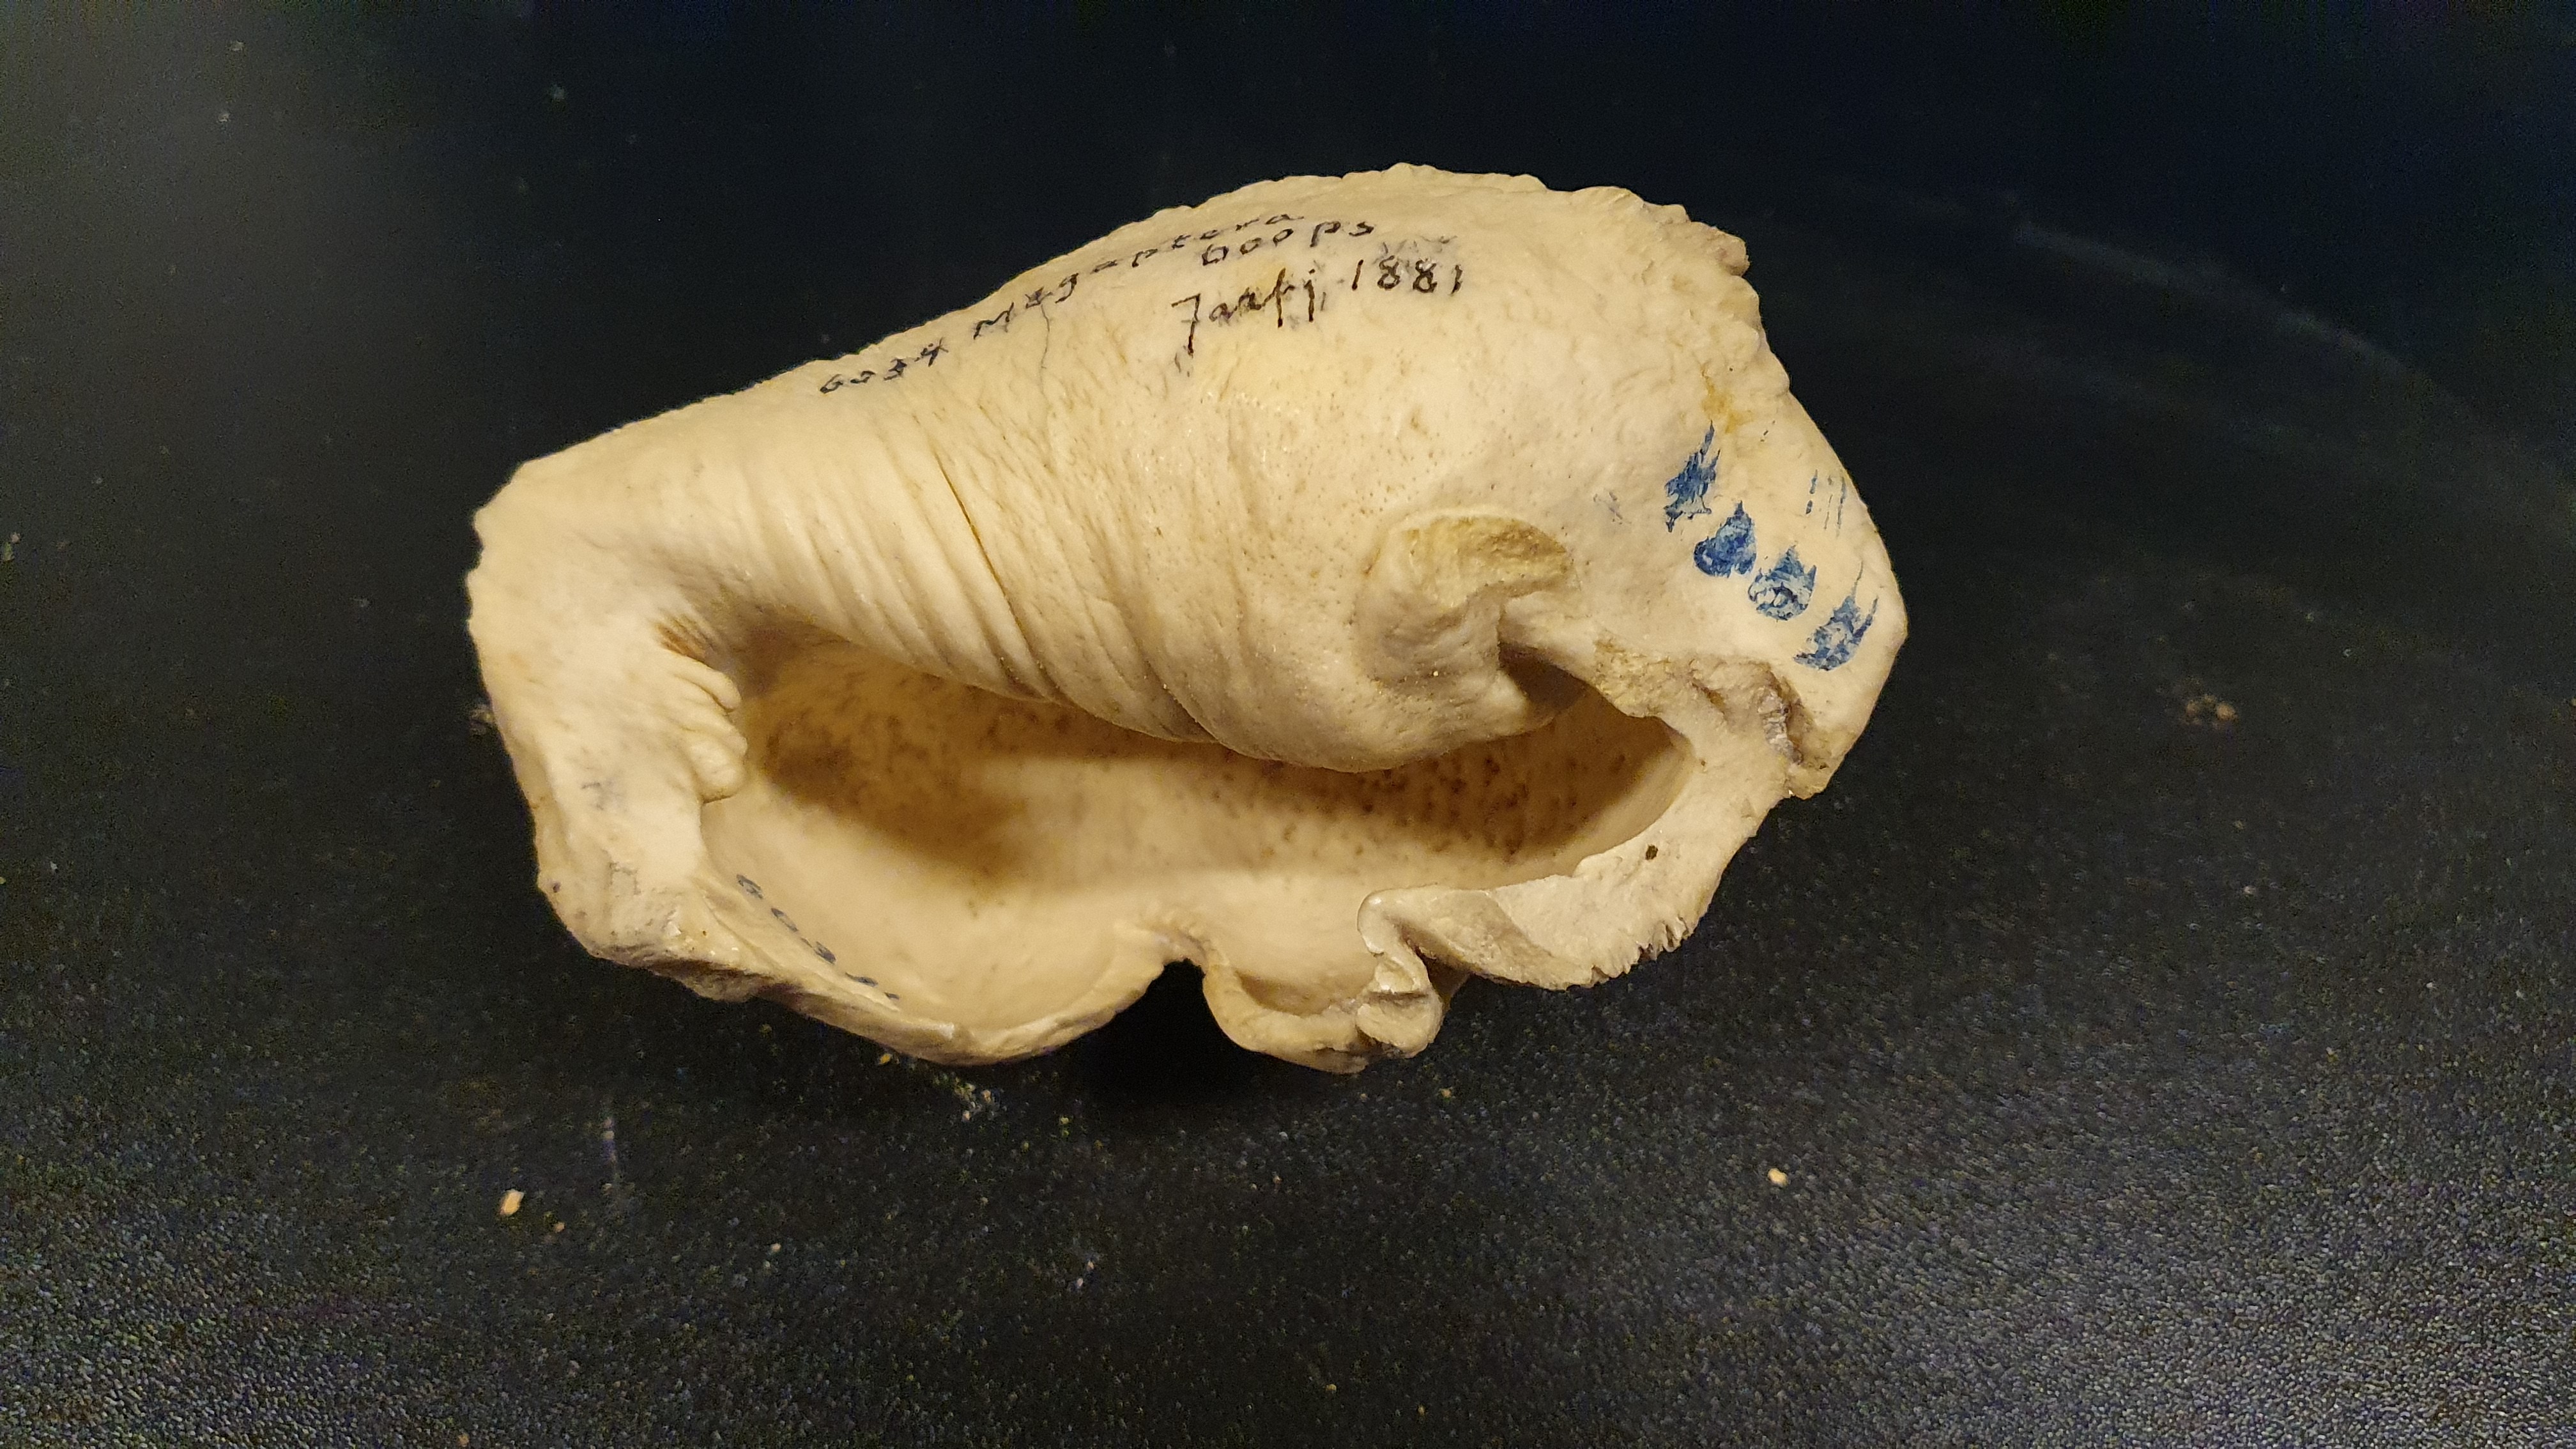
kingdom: Animalia
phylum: Chordata
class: Mammalia
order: Cetacea
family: Balaenopteridae
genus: Megaptera
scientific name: Megaptera novaeangliae
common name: Humpback whale
